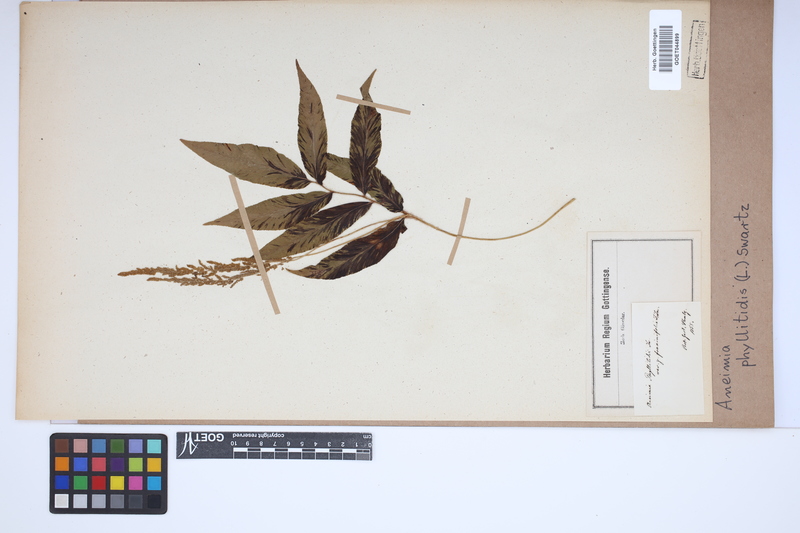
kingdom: Plantae
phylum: Tracheophyta
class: Polypodiopsida
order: Schizaeales
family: Anemiaceae
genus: Anemia
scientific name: Anemia phyllitidis
